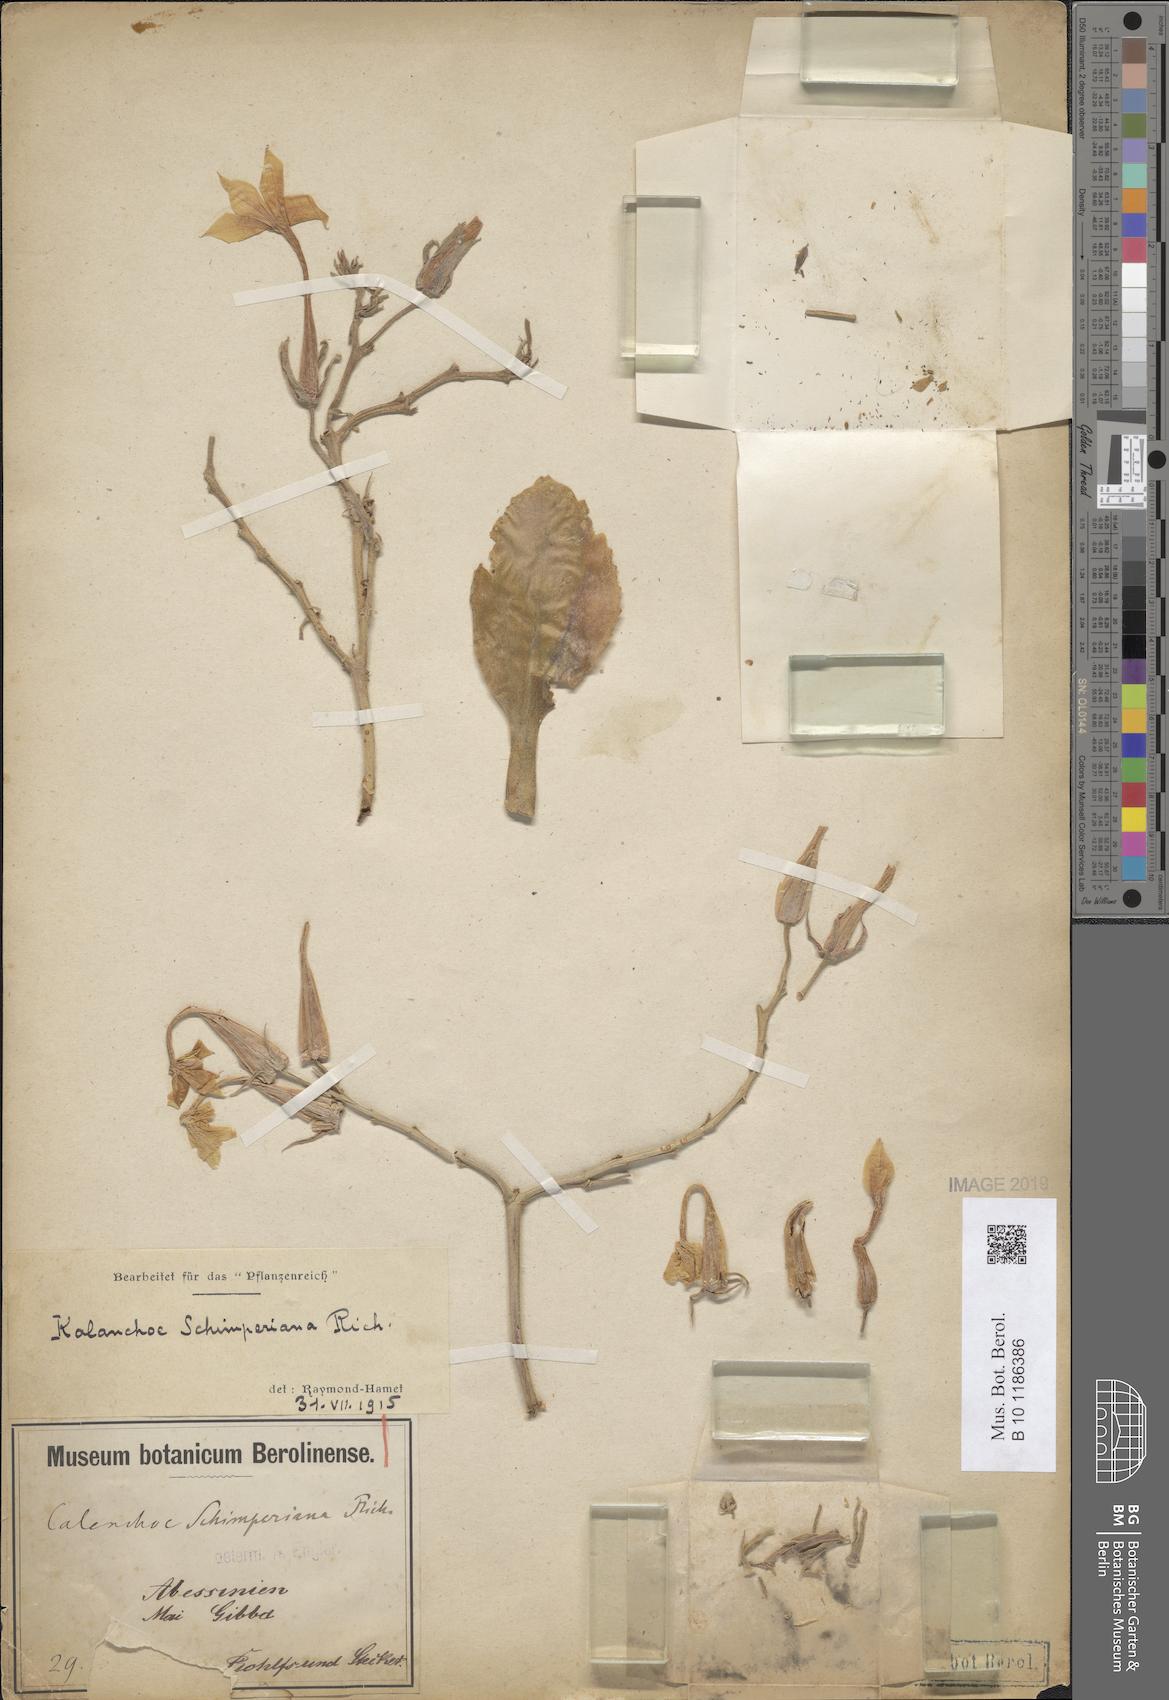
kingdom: Plantae
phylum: Tracheophyta
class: Magnoliopsida
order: Saxifragales
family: Crassulaceae
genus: Kalanchoe
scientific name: Kalanchoe schimperiana
